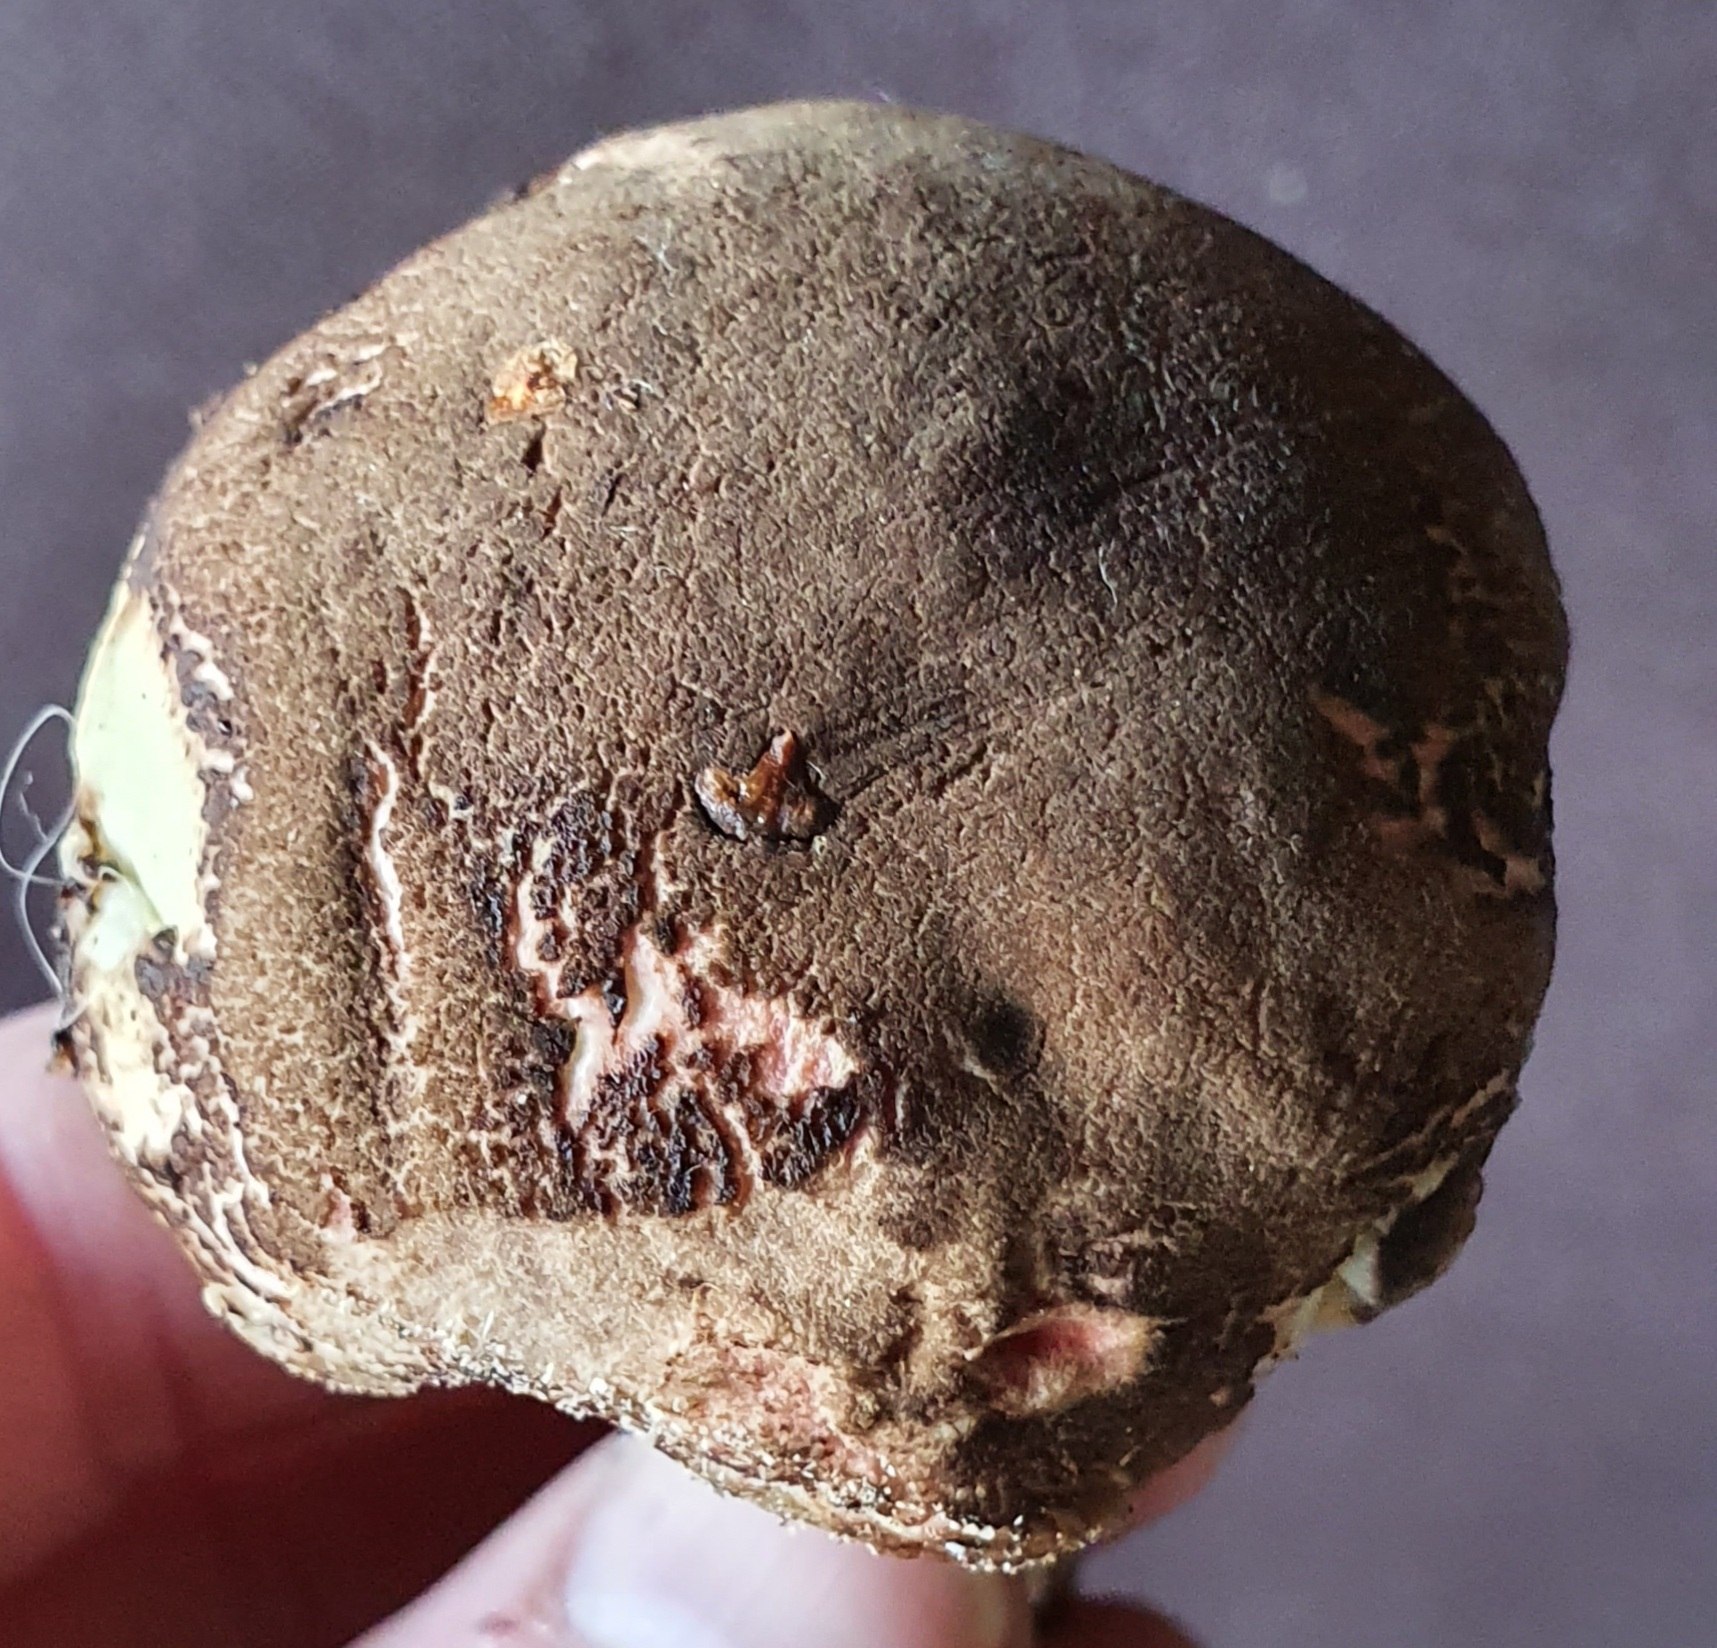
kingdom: Fungi
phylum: Basidiomycota
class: Agaricomycetes
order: Boletales
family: Boletaceae
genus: Xerocomellus
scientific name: Xerocomellus
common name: dværgrørhat
